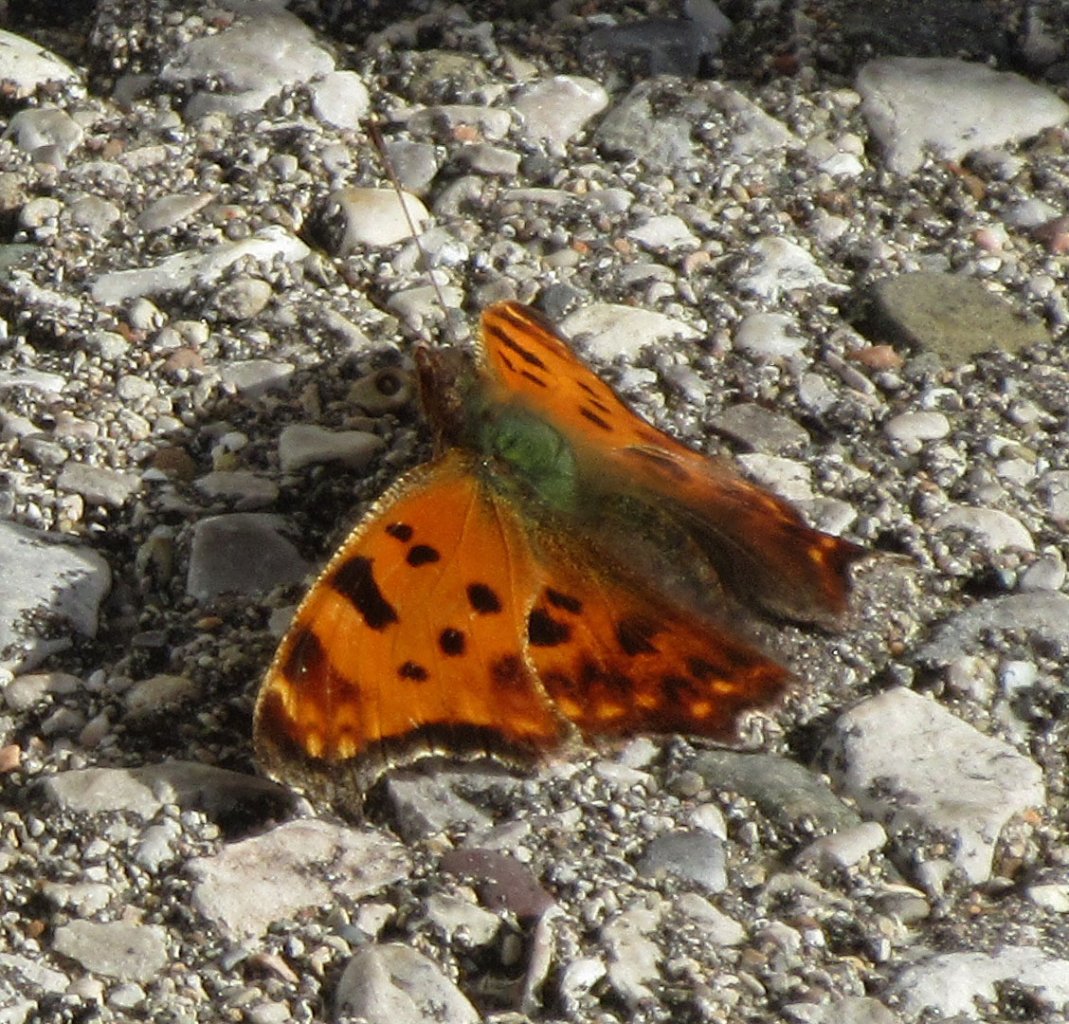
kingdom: Animalia
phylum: Arthropoda
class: Insecta
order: Lepidoptera
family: Nymphalidae
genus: Polygonia
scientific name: Polygonia comma
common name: Eastern Comma
